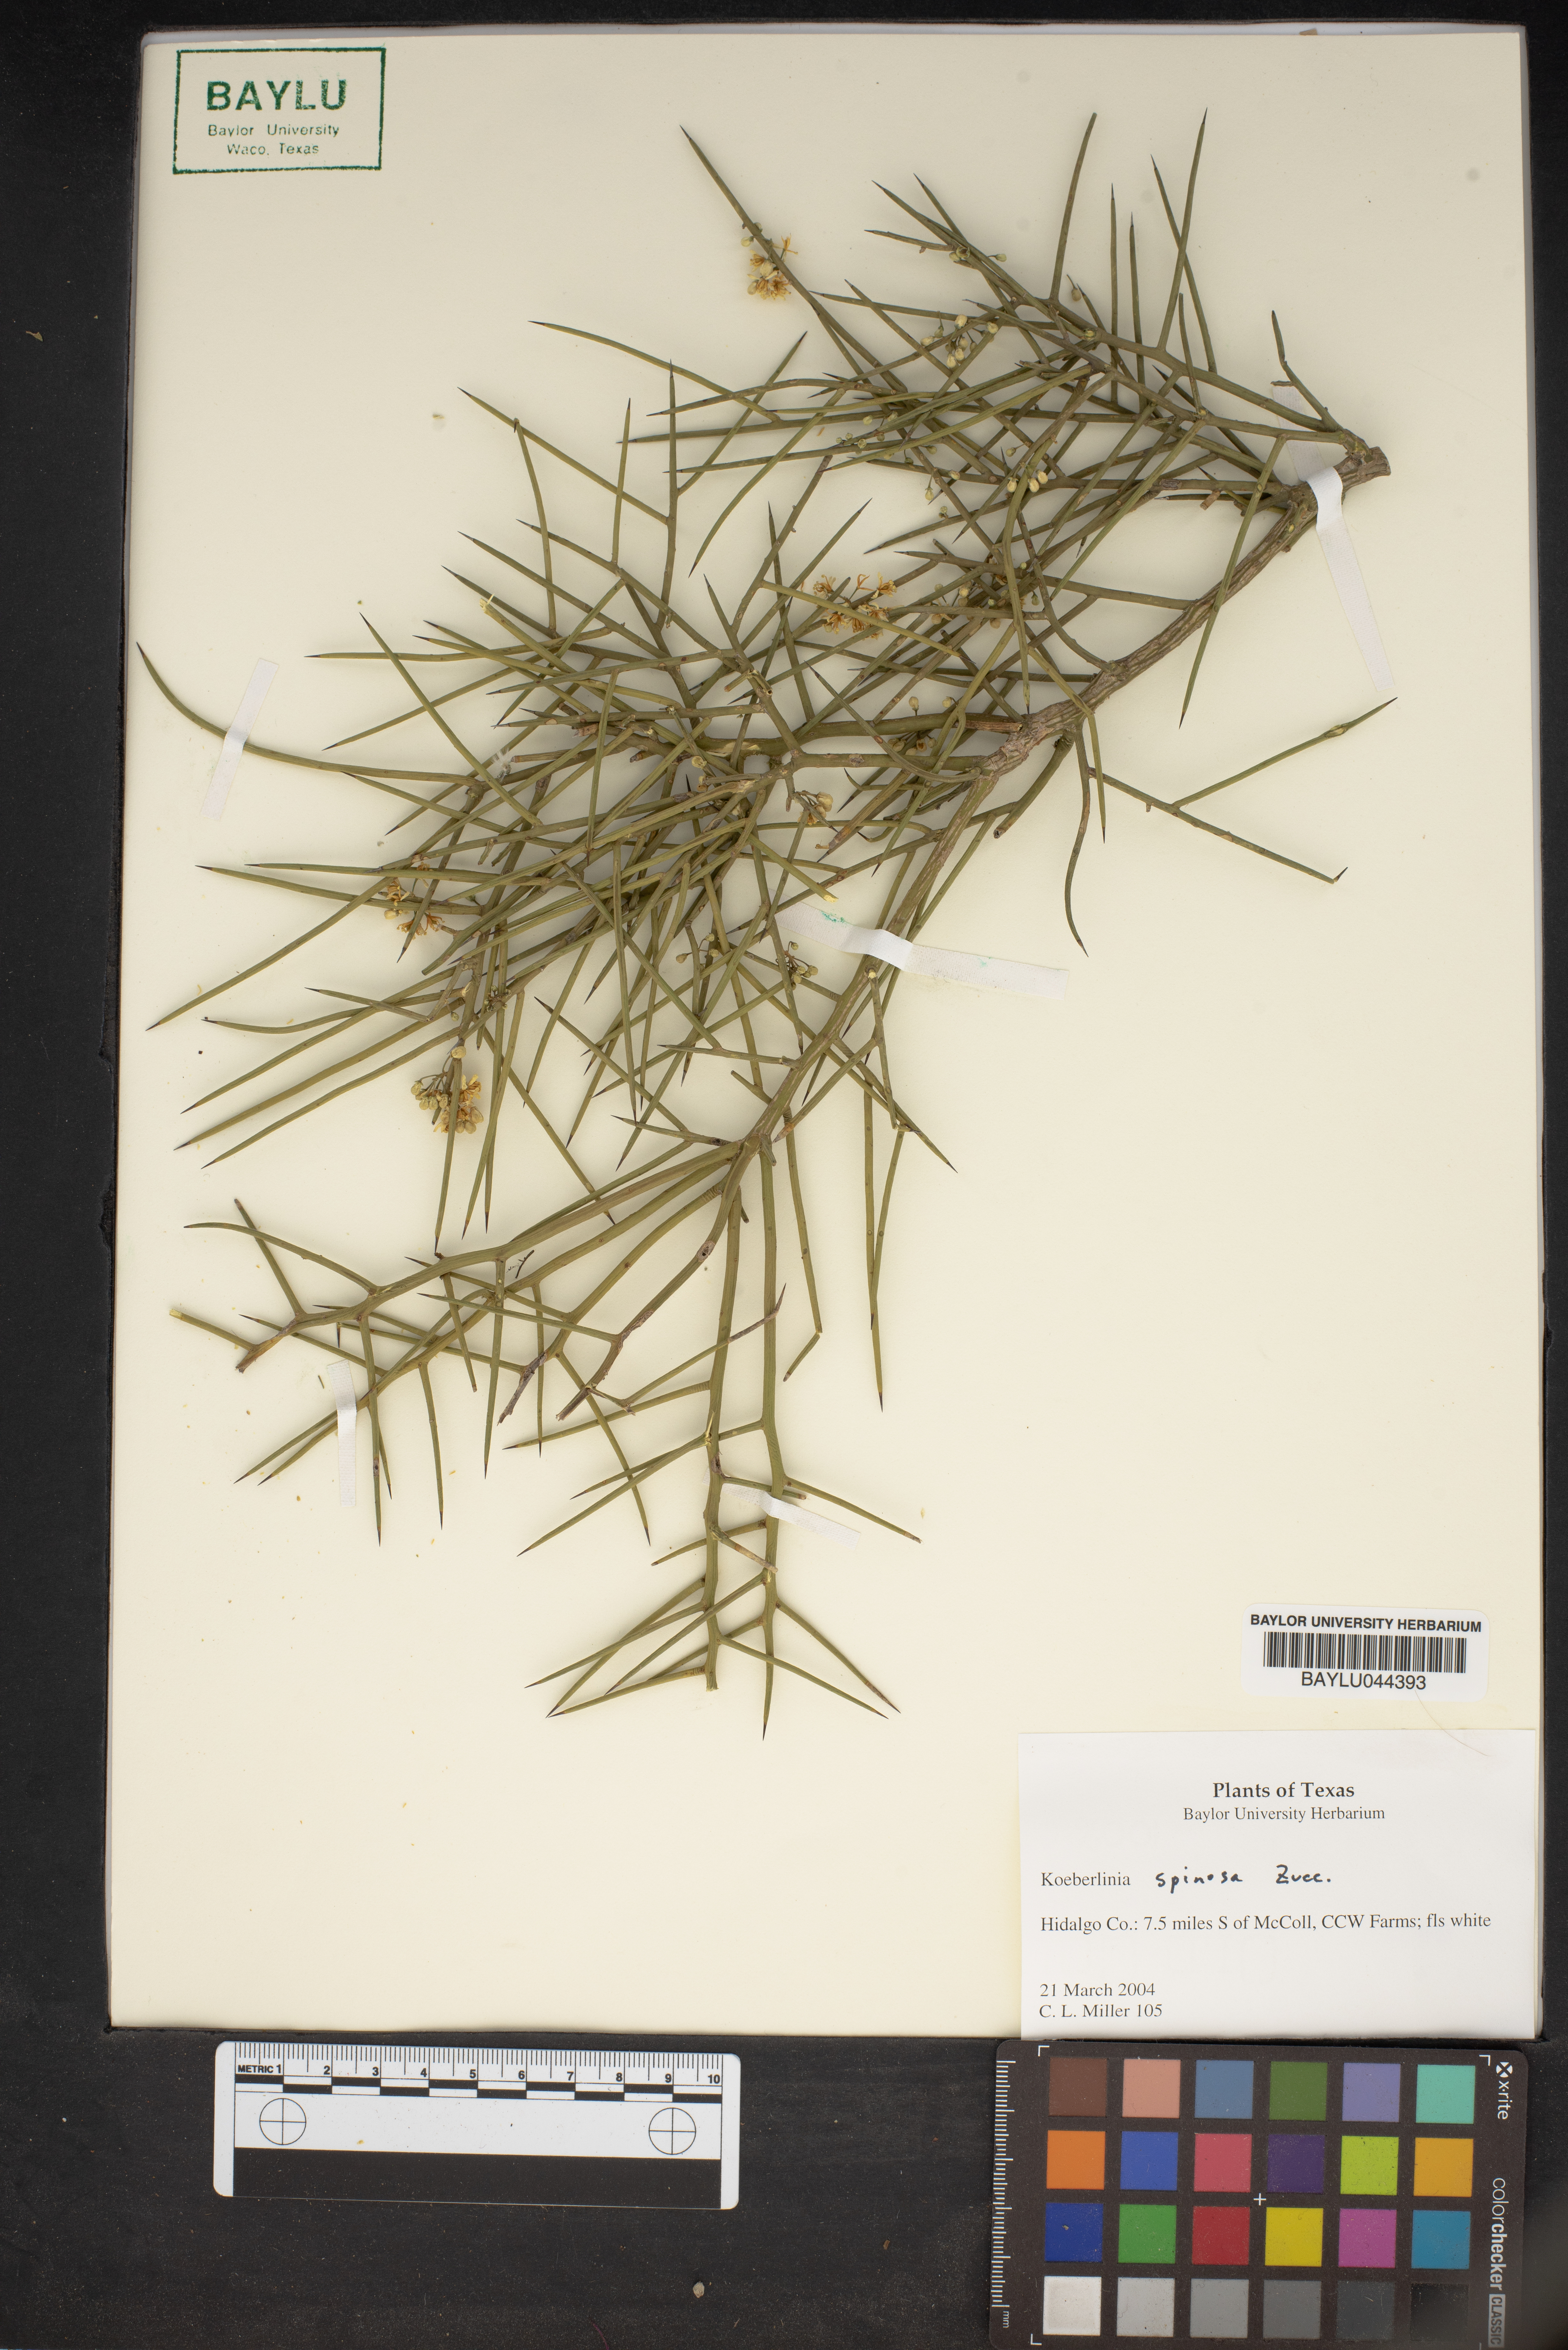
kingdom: Plantae
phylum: Tracheophyta
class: Magnoliopsida
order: Brassicales
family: Koeberliniaceae
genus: Koeberlinia
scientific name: Koeberlinia spinosa
